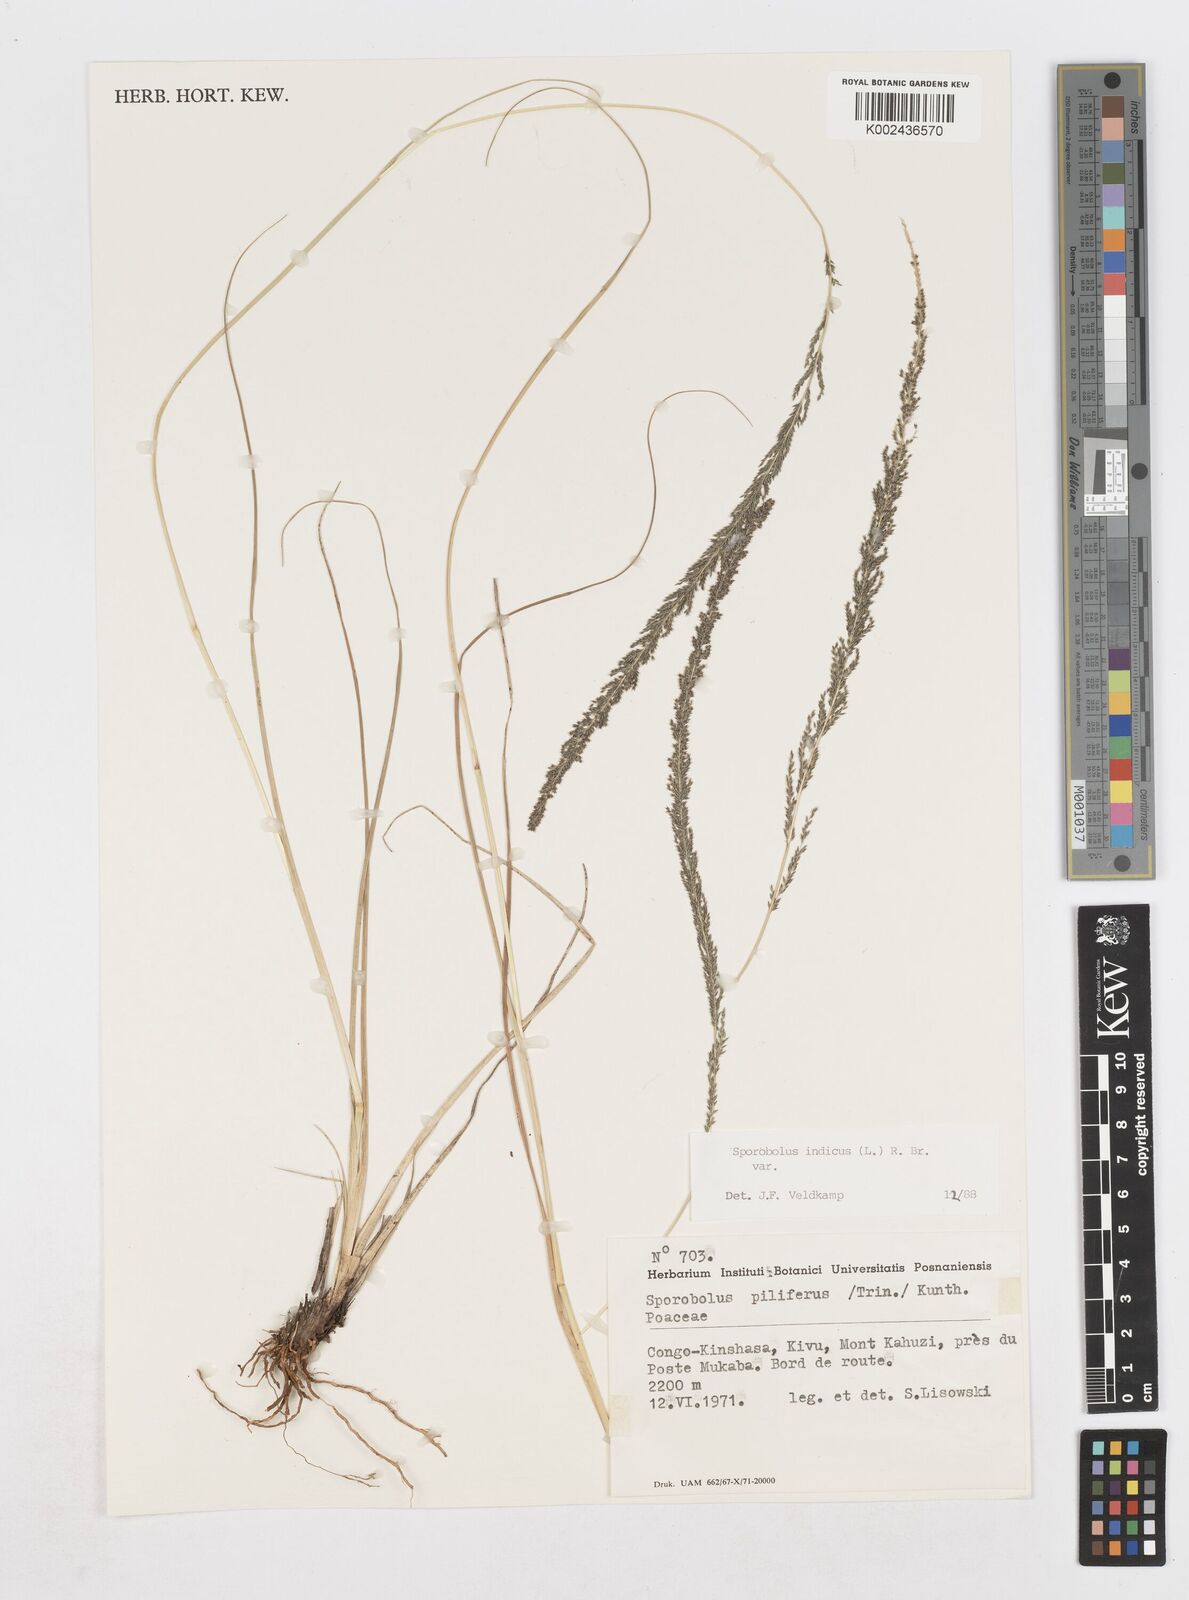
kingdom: Plantae
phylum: Tracheophyta
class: Liliopsida
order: Poales
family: Poaceae
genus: Sporobolus
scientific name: Sporobolus pilifer
